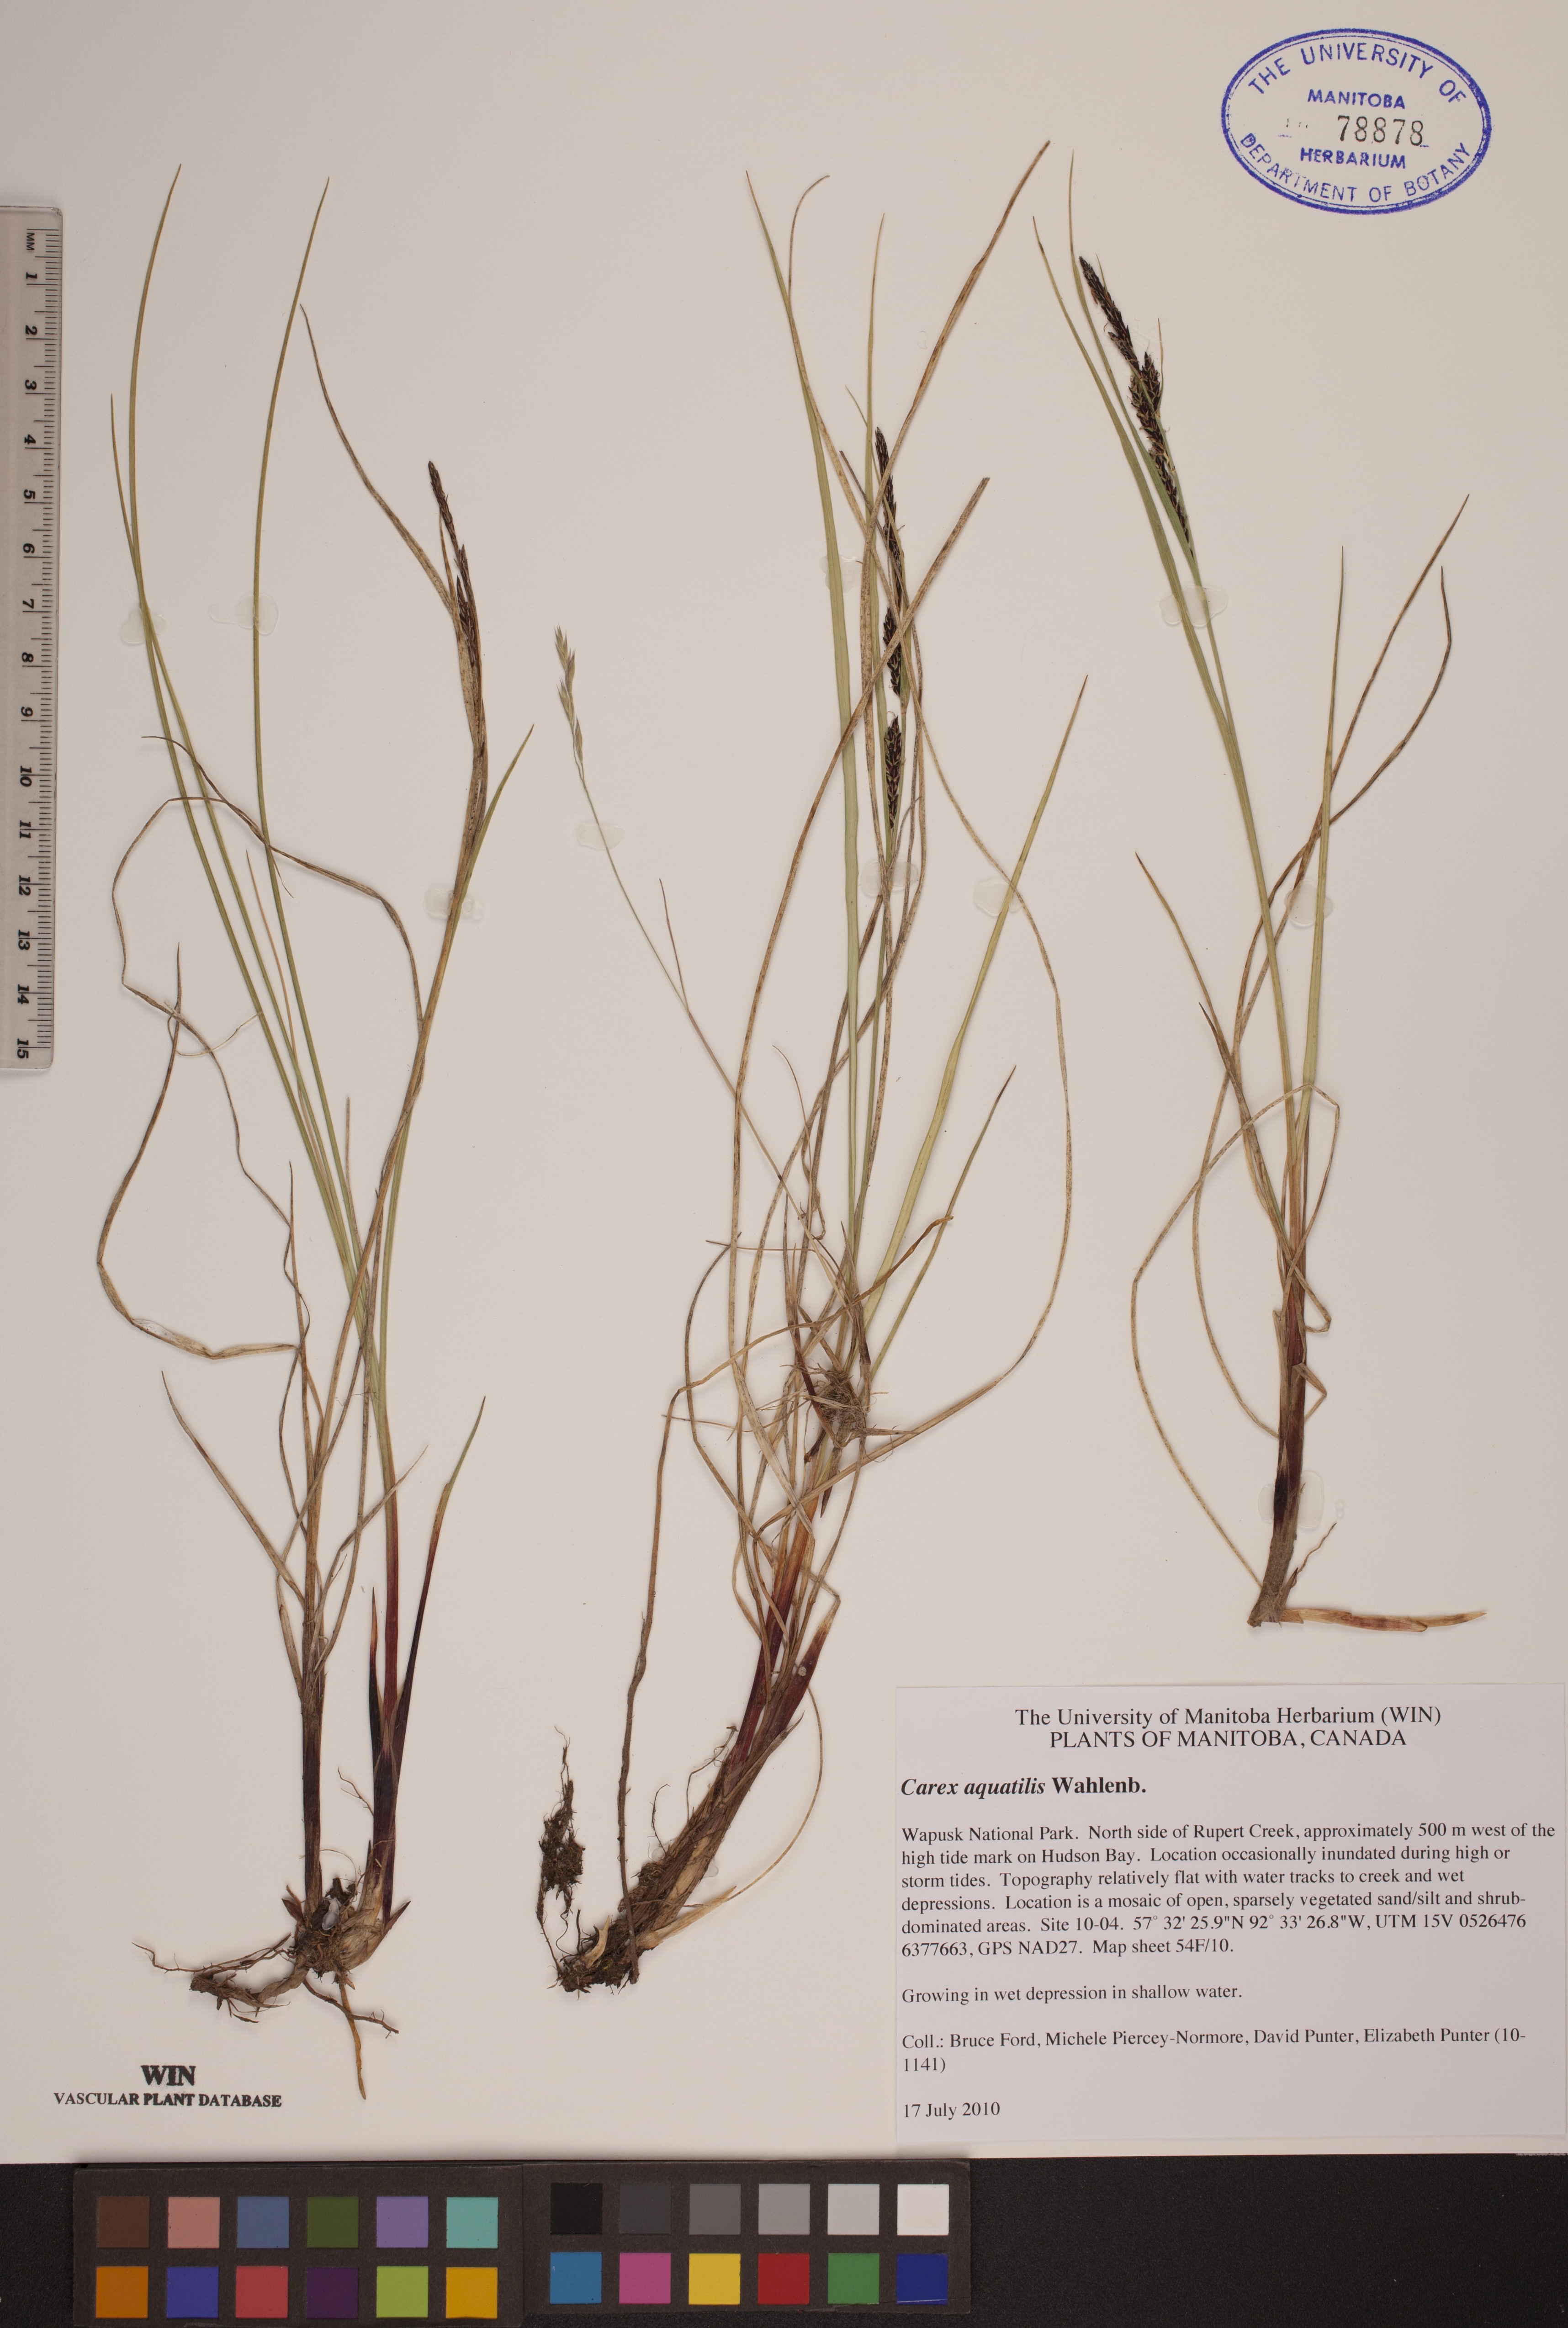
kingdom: Plantae
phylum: Tracheophyta
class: Liliopsida
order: Poales
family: Cyperaceae
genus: Carex
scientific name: Carex aquatilis
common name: Water sedge
